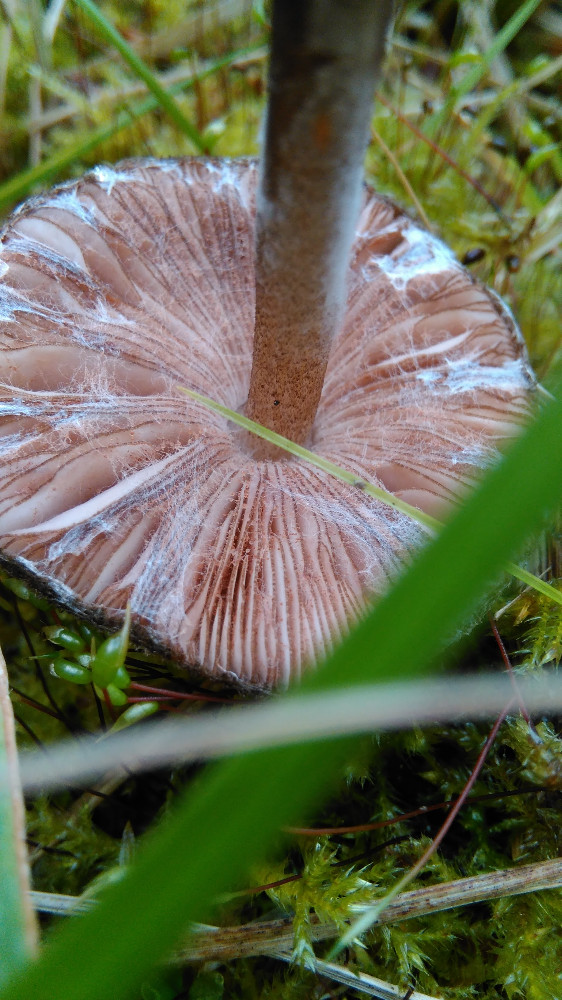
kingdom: Fungi
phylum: Basidiomycota
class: Agaricomycetes
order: Agaricales
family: Pluteaceae
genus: Pluteus
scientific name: Pluteus umbrosus
